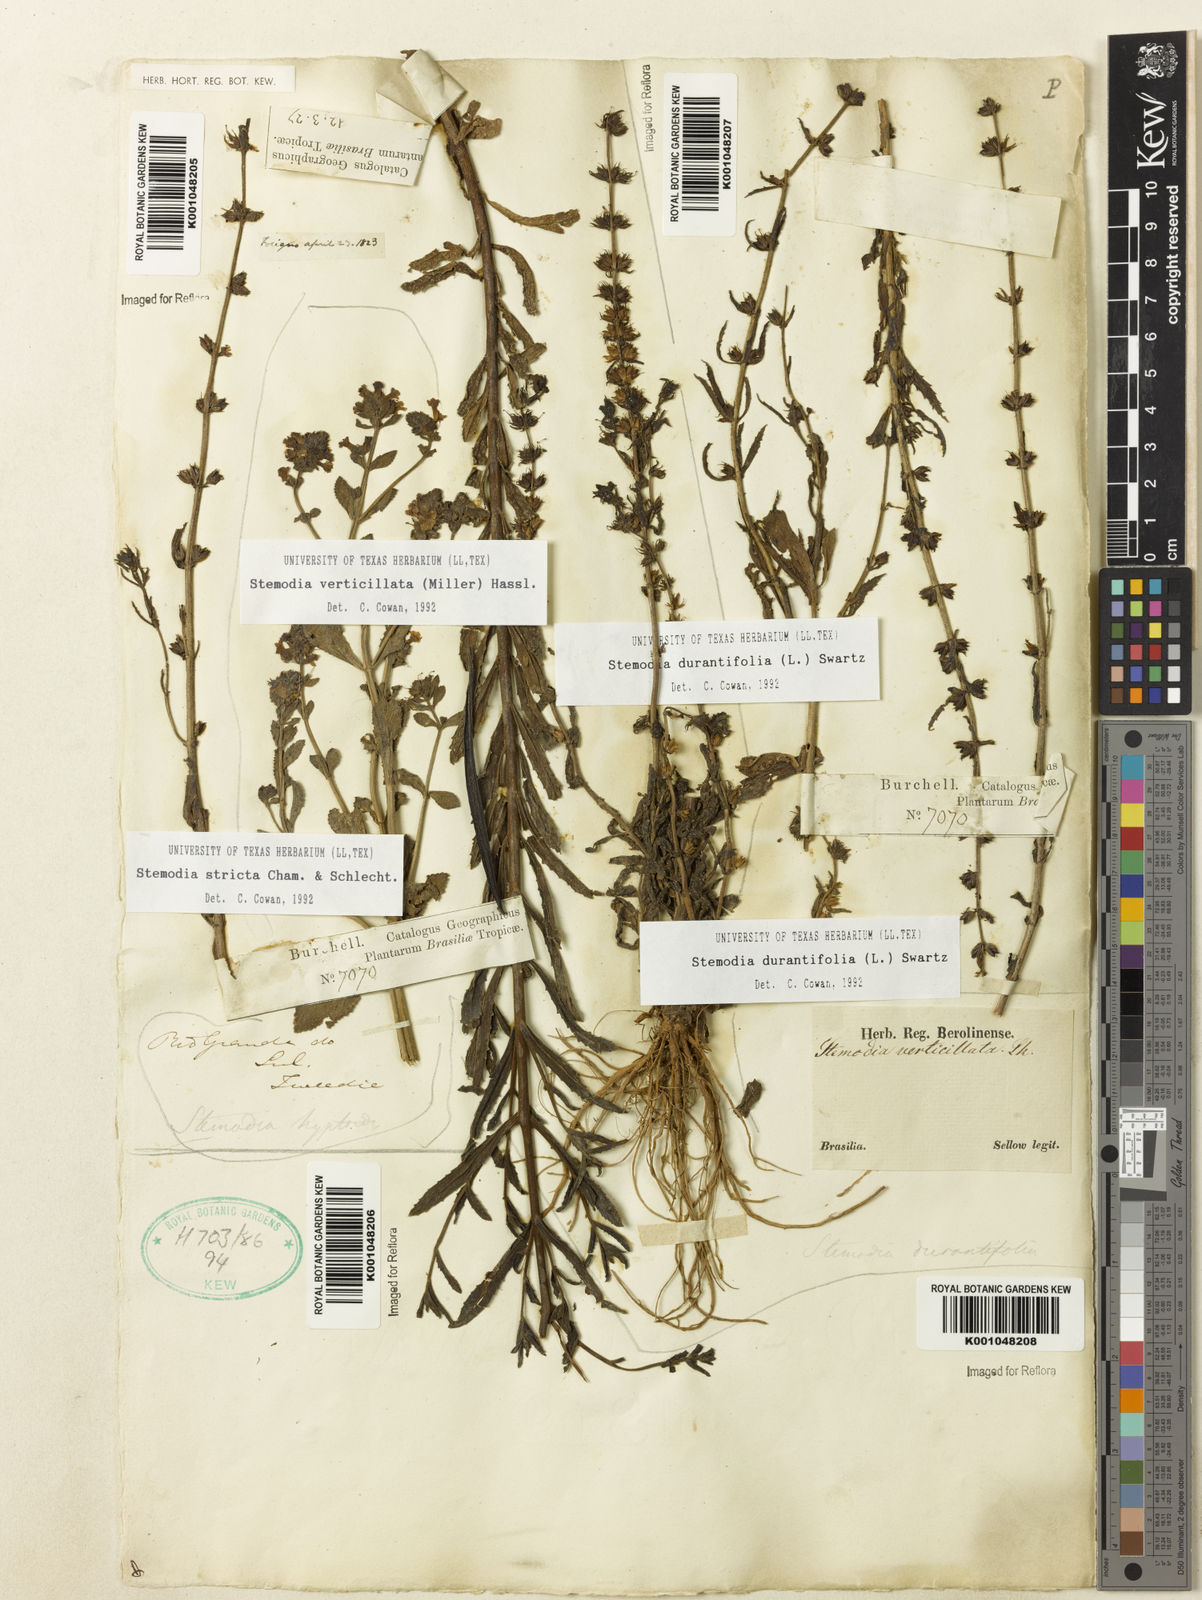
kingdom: Plantae
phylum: Tracheophyta
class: Magnoliopsida
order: Lamiales
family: Plantaginaceae
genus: Stemodia
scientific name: Stemodia durantifolia
